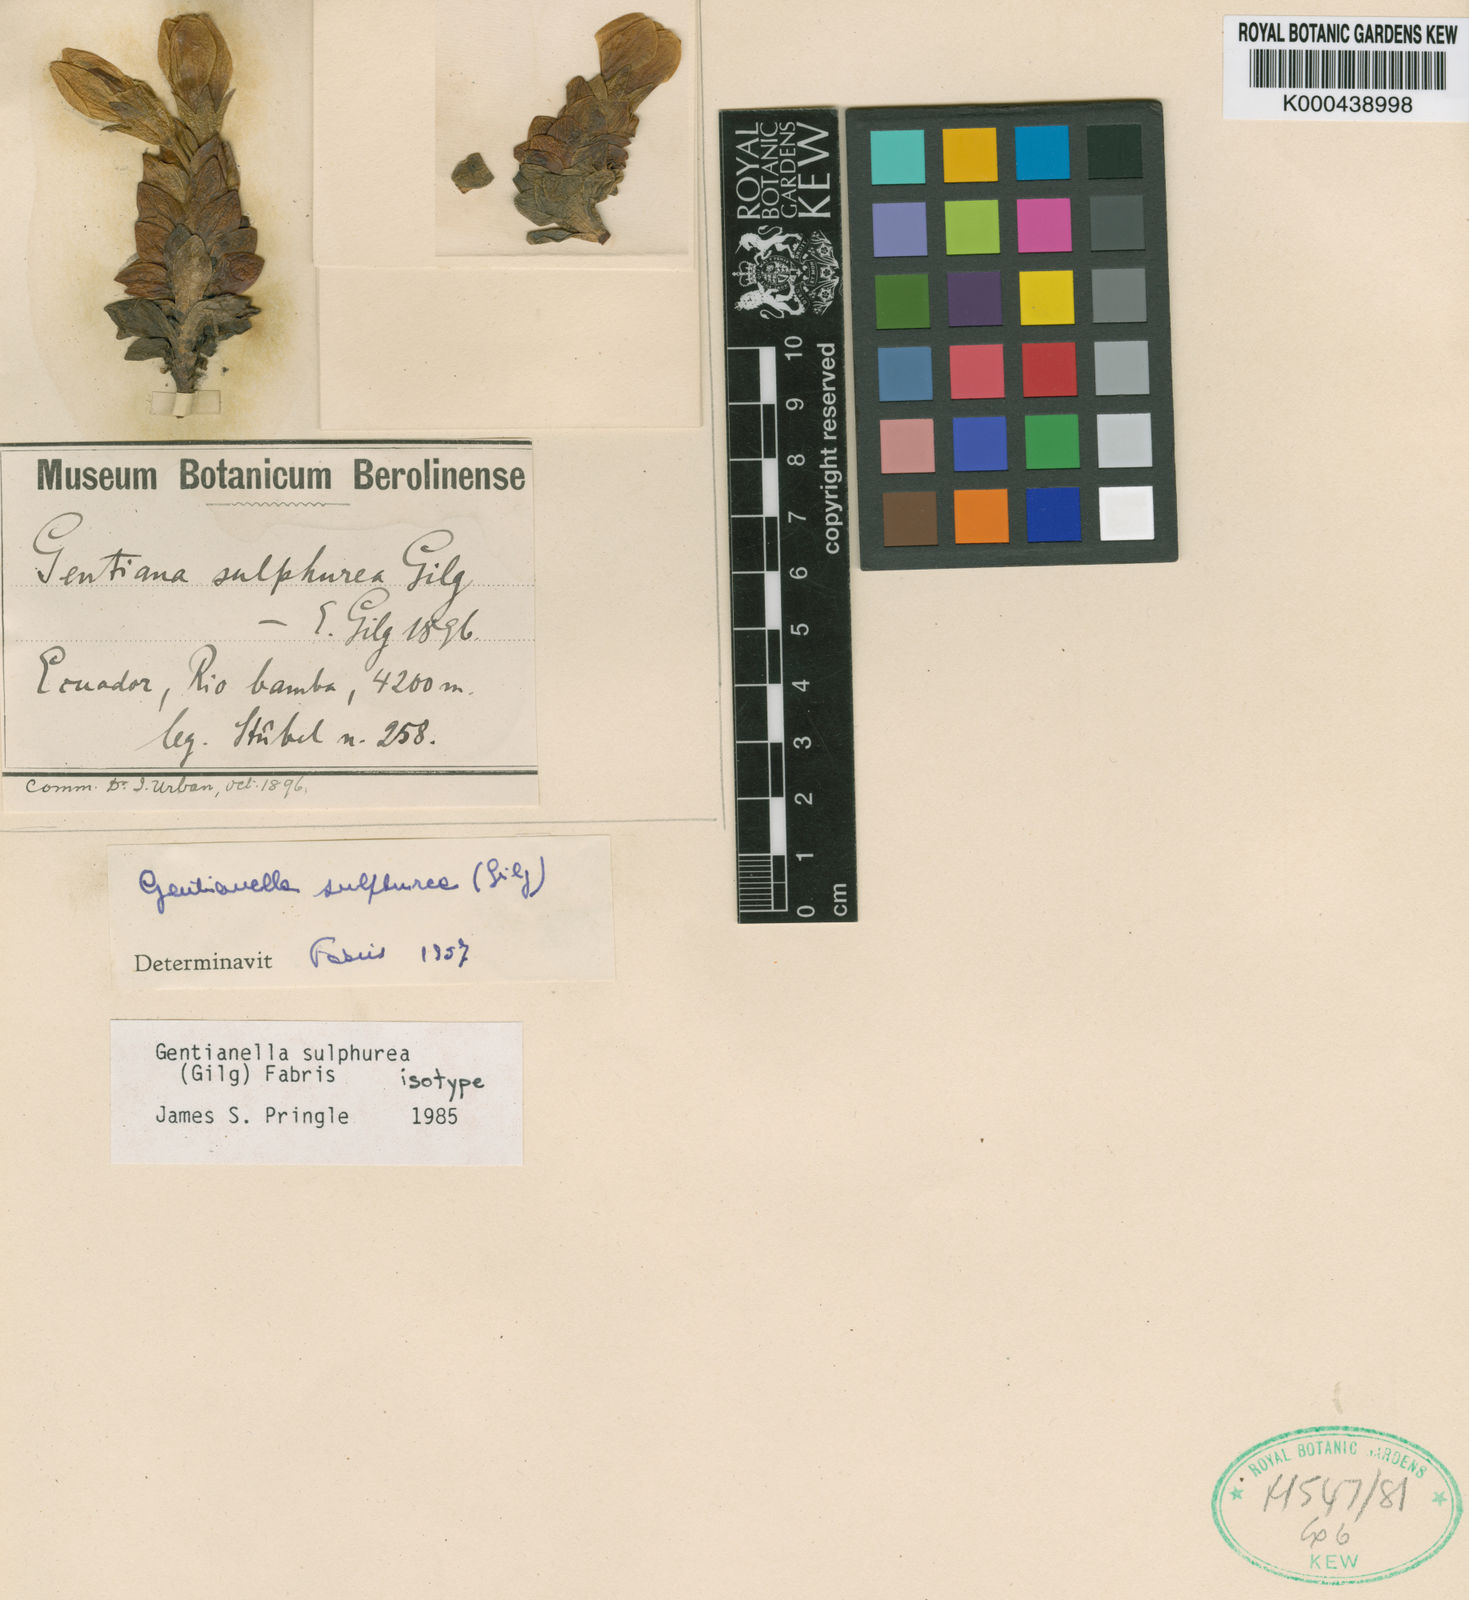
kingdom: Plantae
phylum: Tracheophyta
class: Magnoliopsida
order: Gentianales
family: Gentianaceae
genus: Gentianella
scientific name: Gentianella sulphurea
